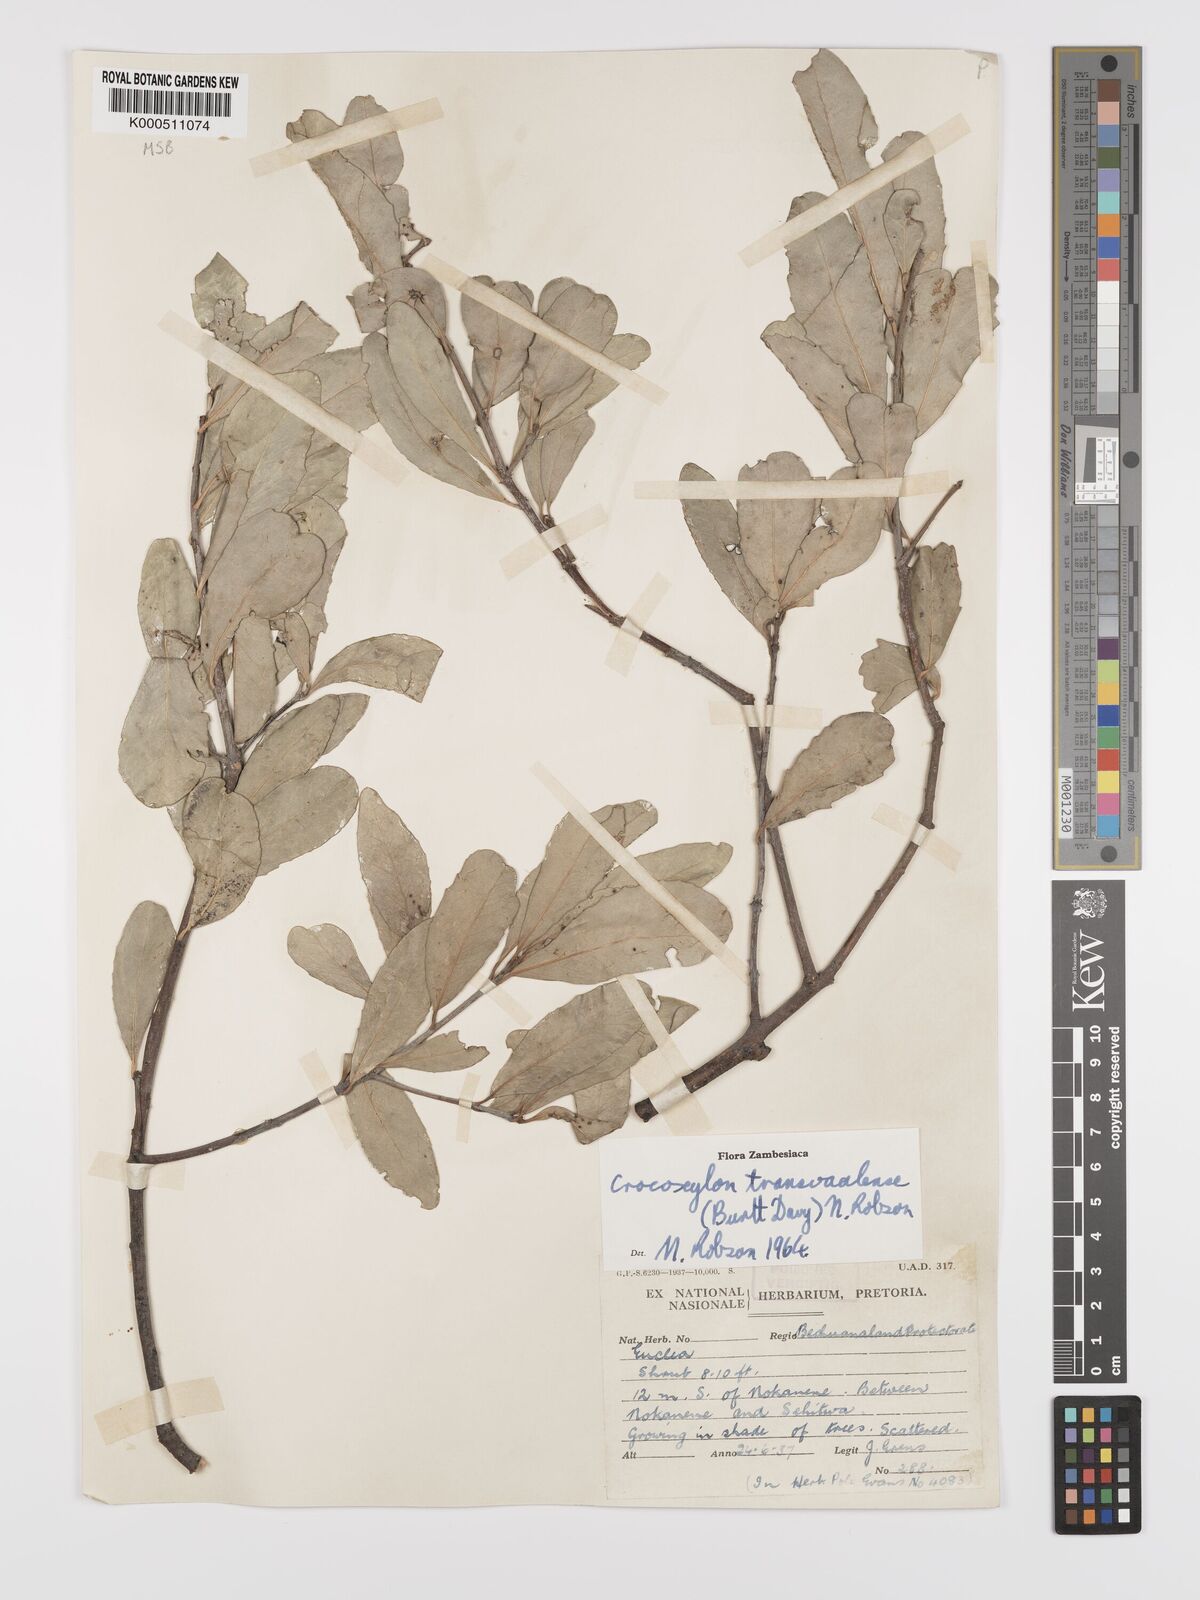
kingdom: Plantae
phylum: Tracheophyta
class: Magnoliopsida
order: Celastrales
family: Celastraceae
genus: Elaeodendron
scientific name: Elaeodendron transvaalense
